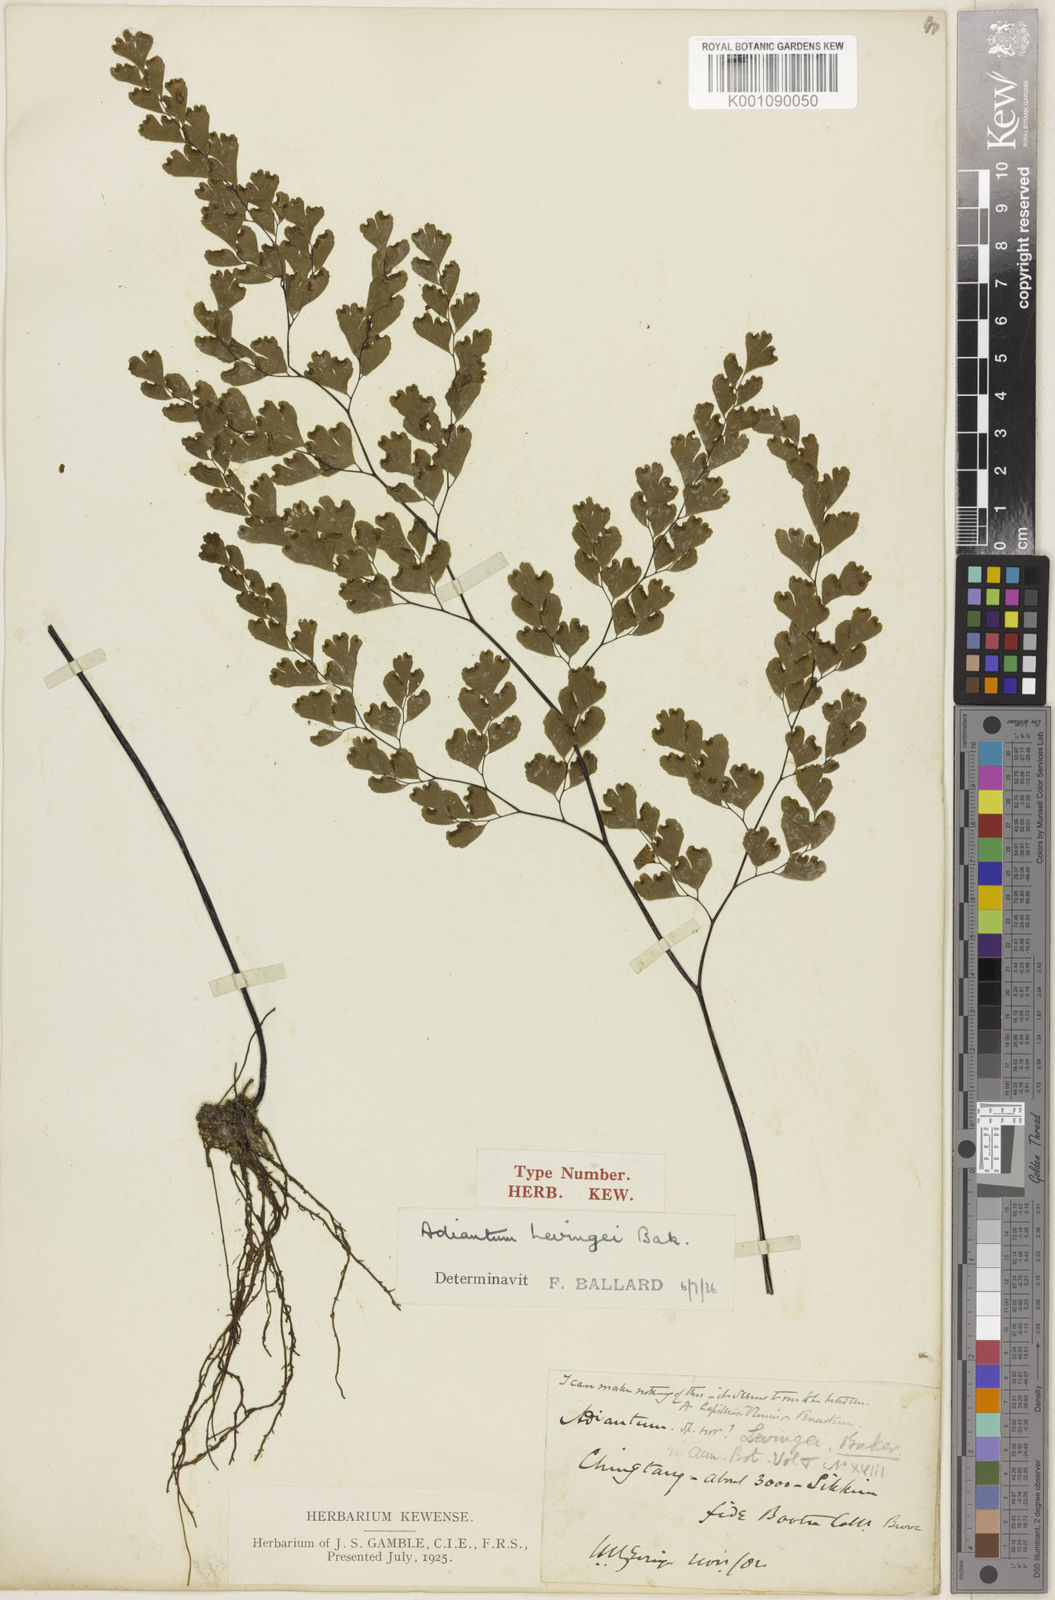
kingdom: Plantae
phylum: Tracheophyta
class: Polypodiopsida
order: Polypodiales
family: Pteridaceae
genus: Adiantum
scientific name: Adiantum wattii
